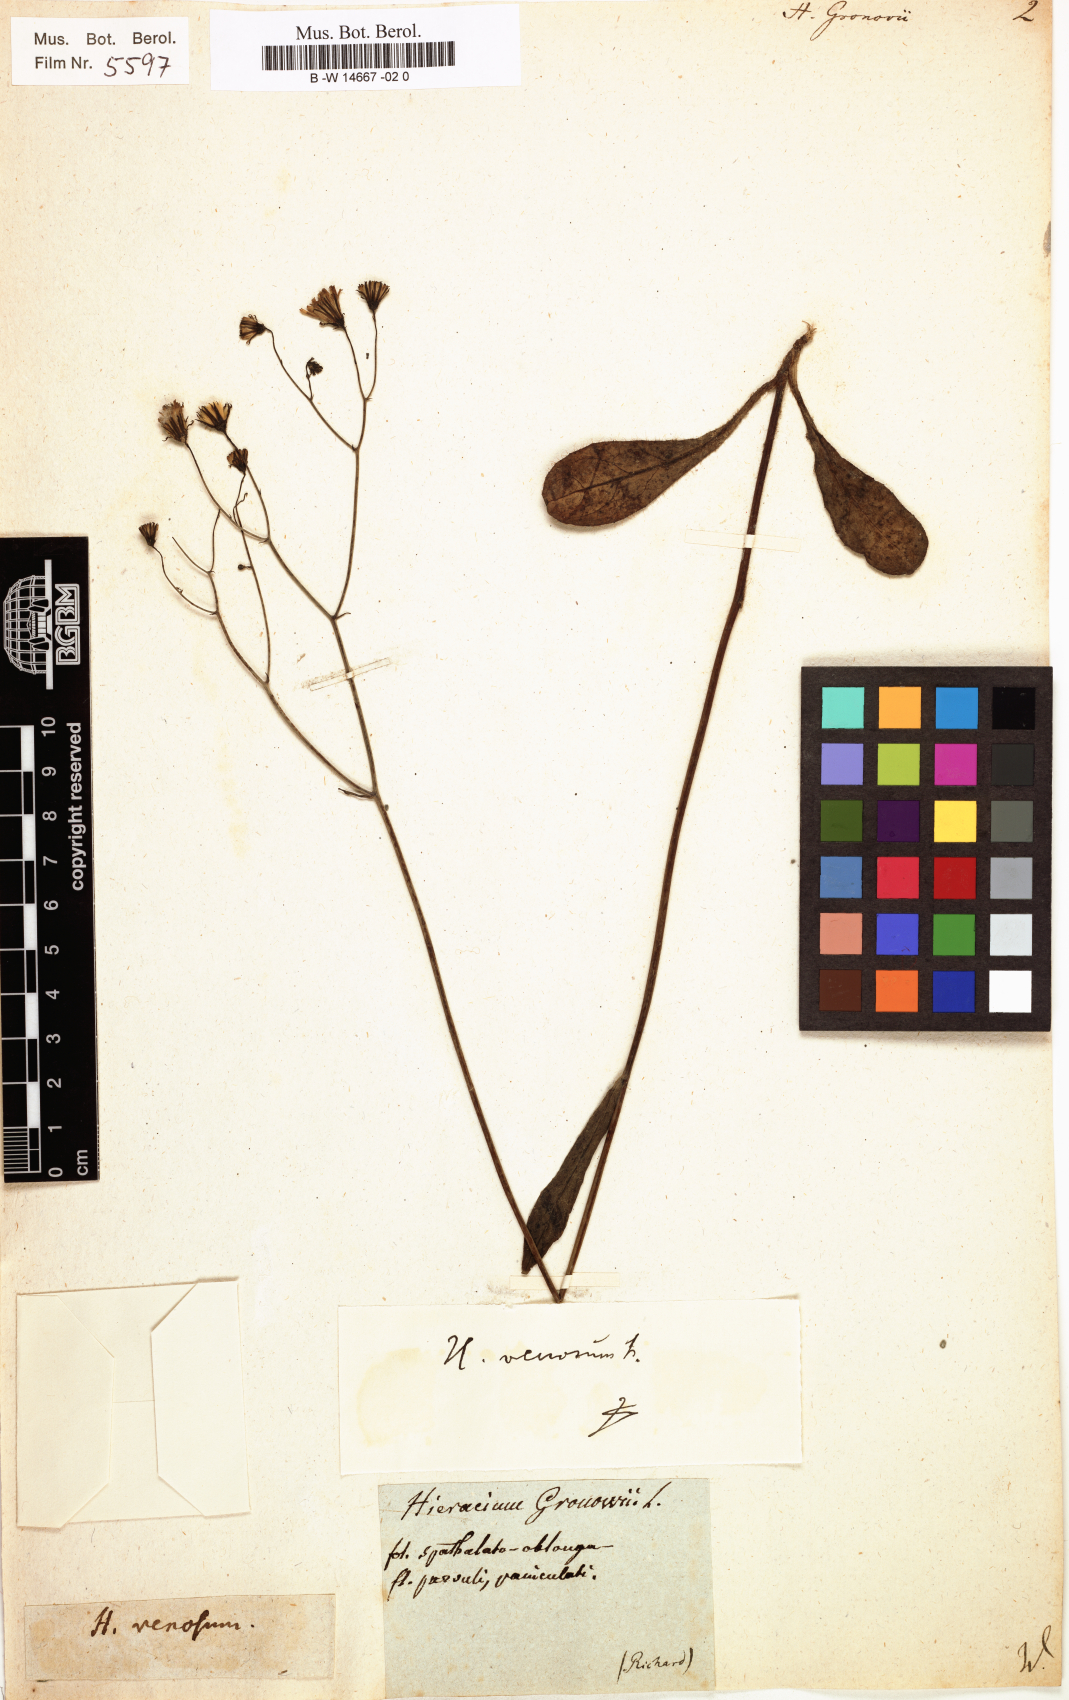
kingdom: Plantae
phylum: Tracheophyta
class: Magnoliopsida
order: Asterales
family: Asteraceae
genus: Hieracium
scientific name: Hieracium gronovii
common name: Beaked hawkweed
